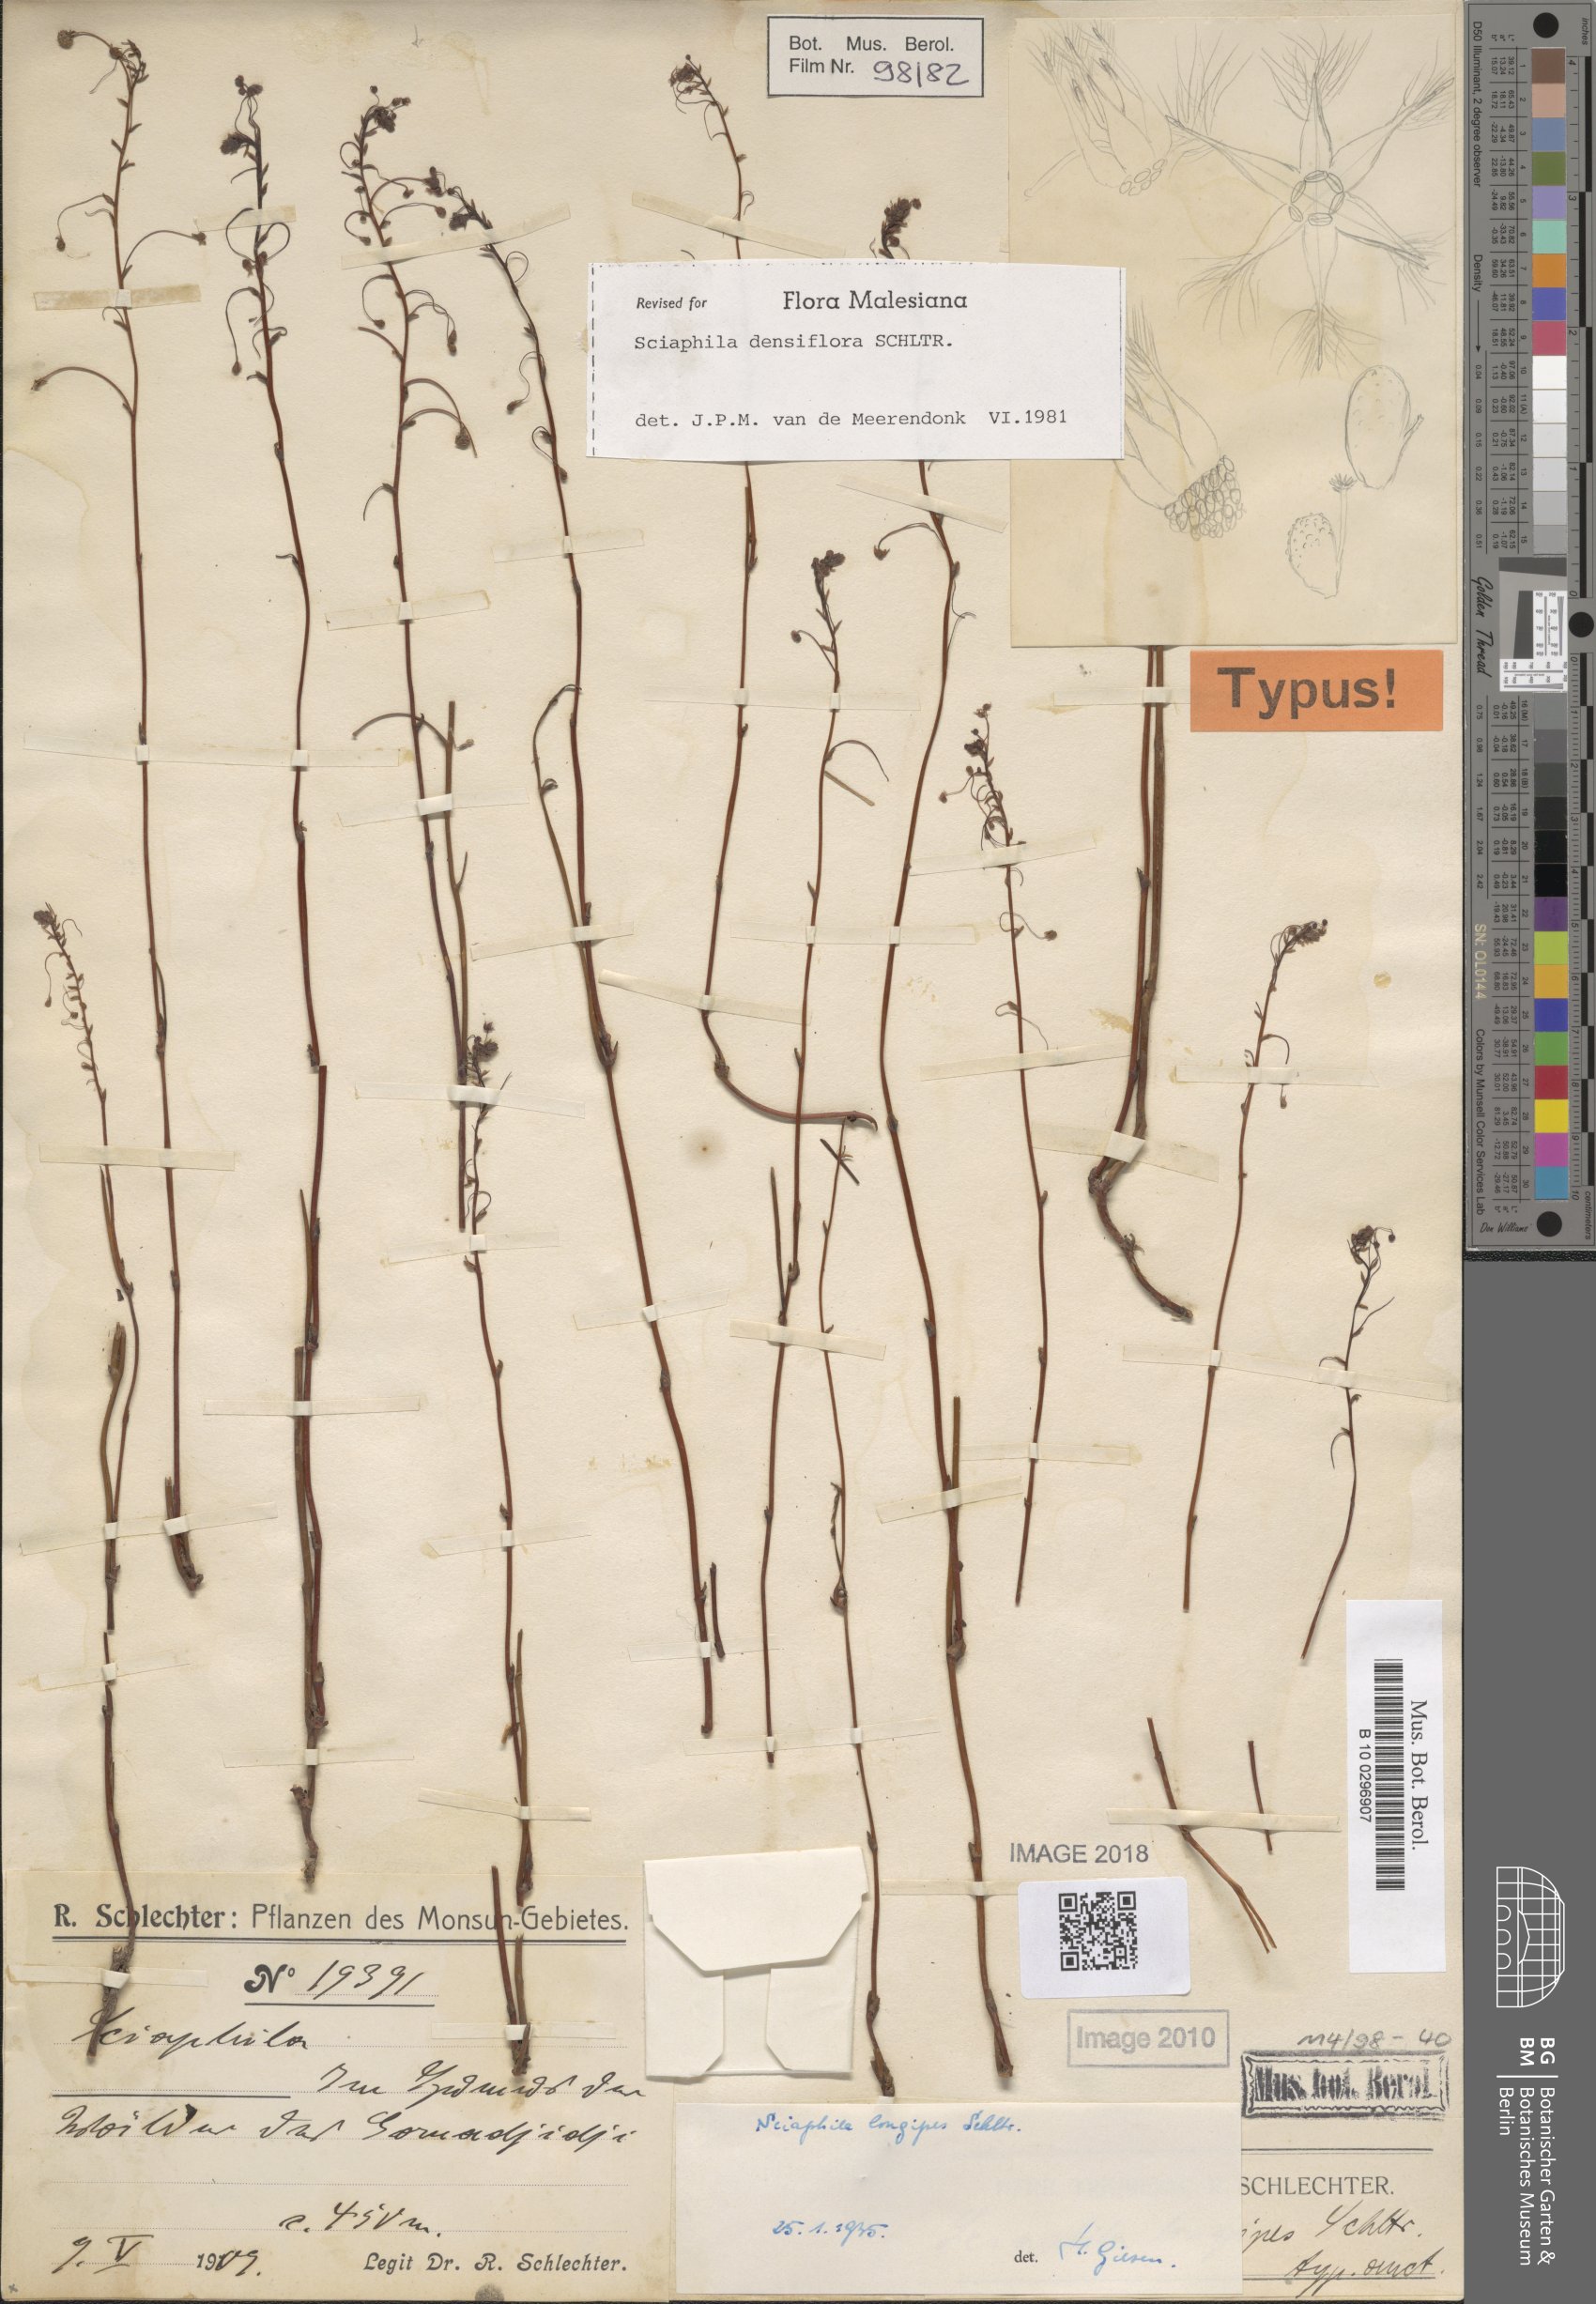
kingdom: Plantae
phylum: Tracheophyta
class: Liliopsida
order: Pandanales
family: Triuridaceae
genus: Sciaphila
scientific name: Sciaphila densiflora
